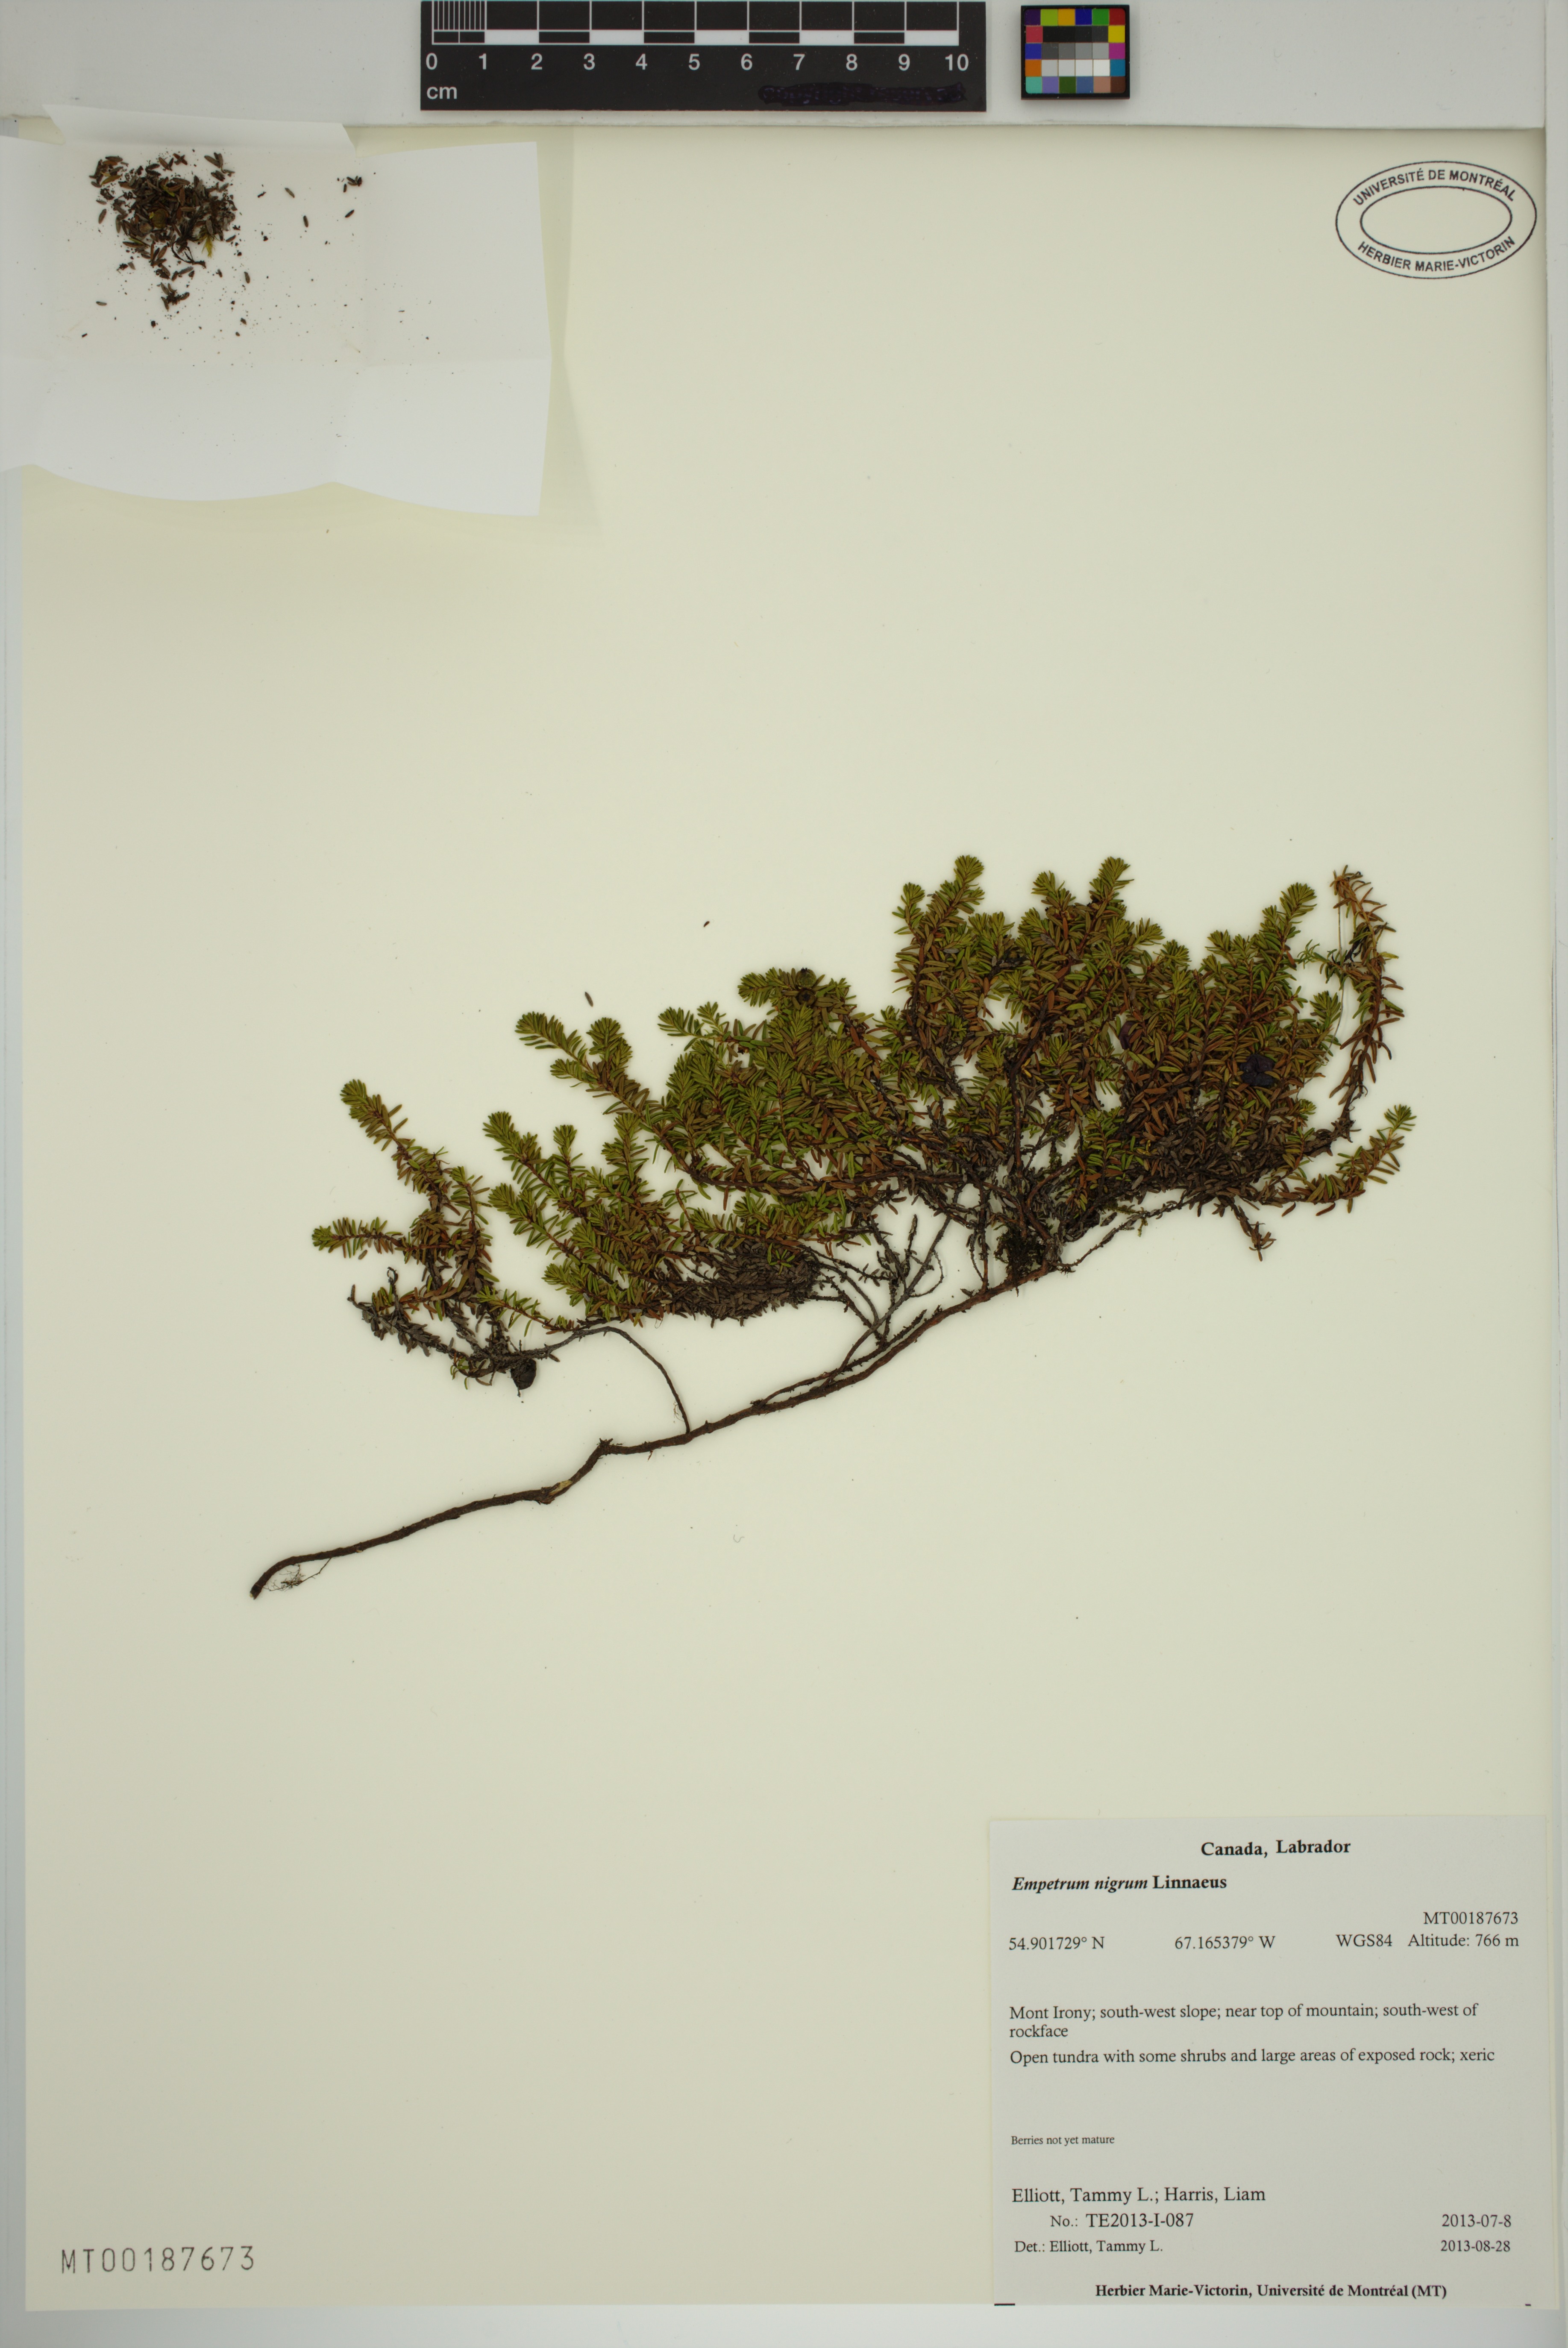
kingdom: Plantae
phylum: Tracheophyta
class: Magnoliopsida
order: Ericales
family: Ericaceae
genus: Empetrum
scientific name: Empetrum nigrum
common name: Black crowberry
